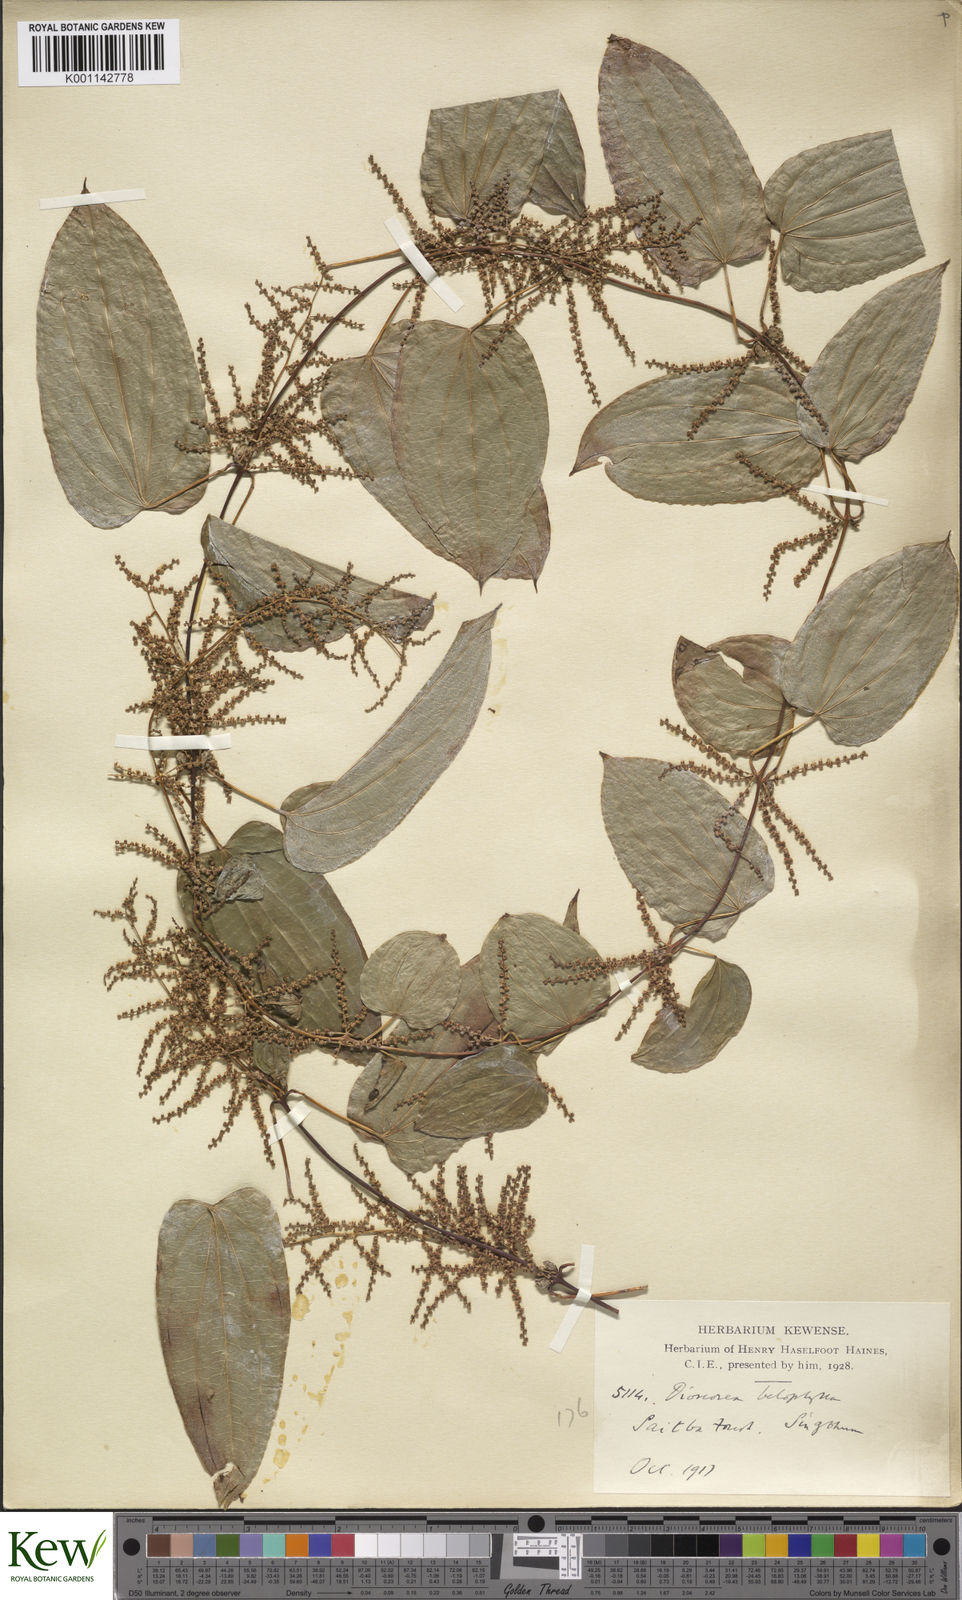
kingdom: Plantae
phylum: Tracheophyta
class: Liliopsida
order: Dioscoreales
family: Dioscoreaceae
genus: Dioscorea
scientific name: Dioscorea belophylla
